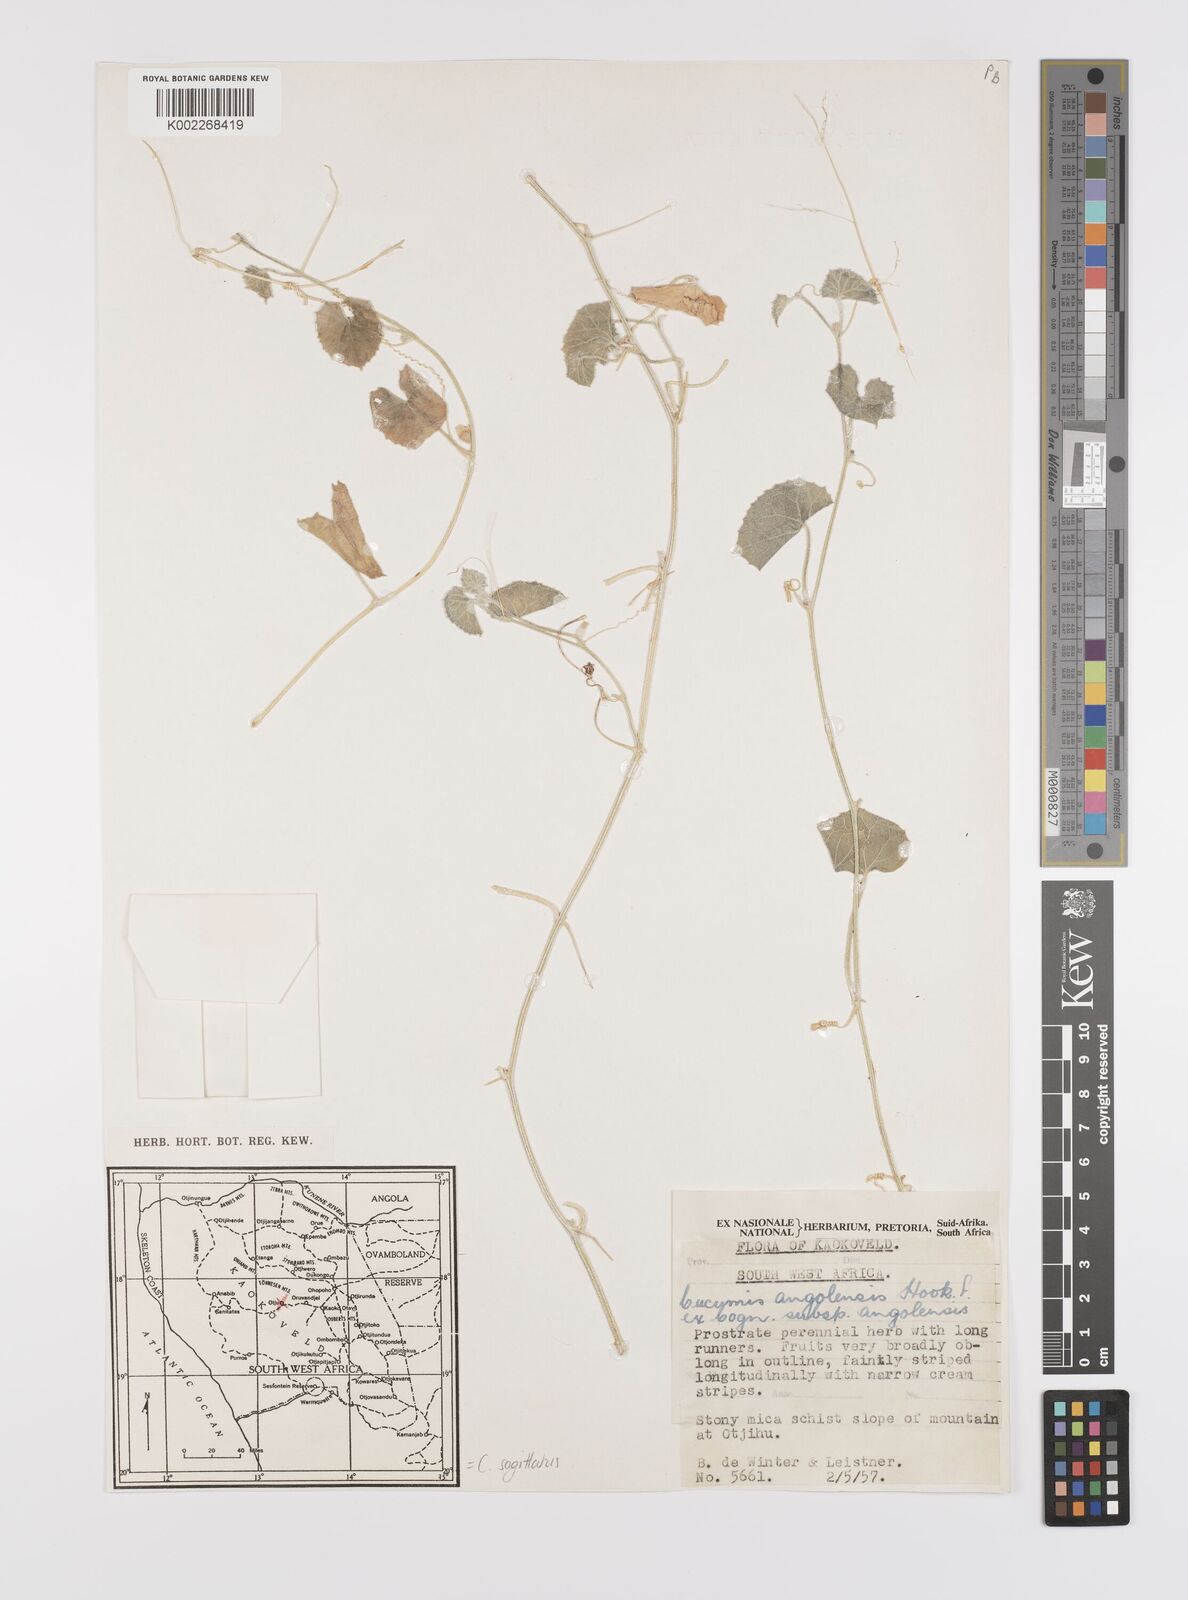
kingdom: Plantae
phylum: Tracheophyta
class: Magnoliopsida
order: Cucurbitales
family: Cucurbitaceae
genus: Cucumis
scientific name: Cucumis sagittatus
